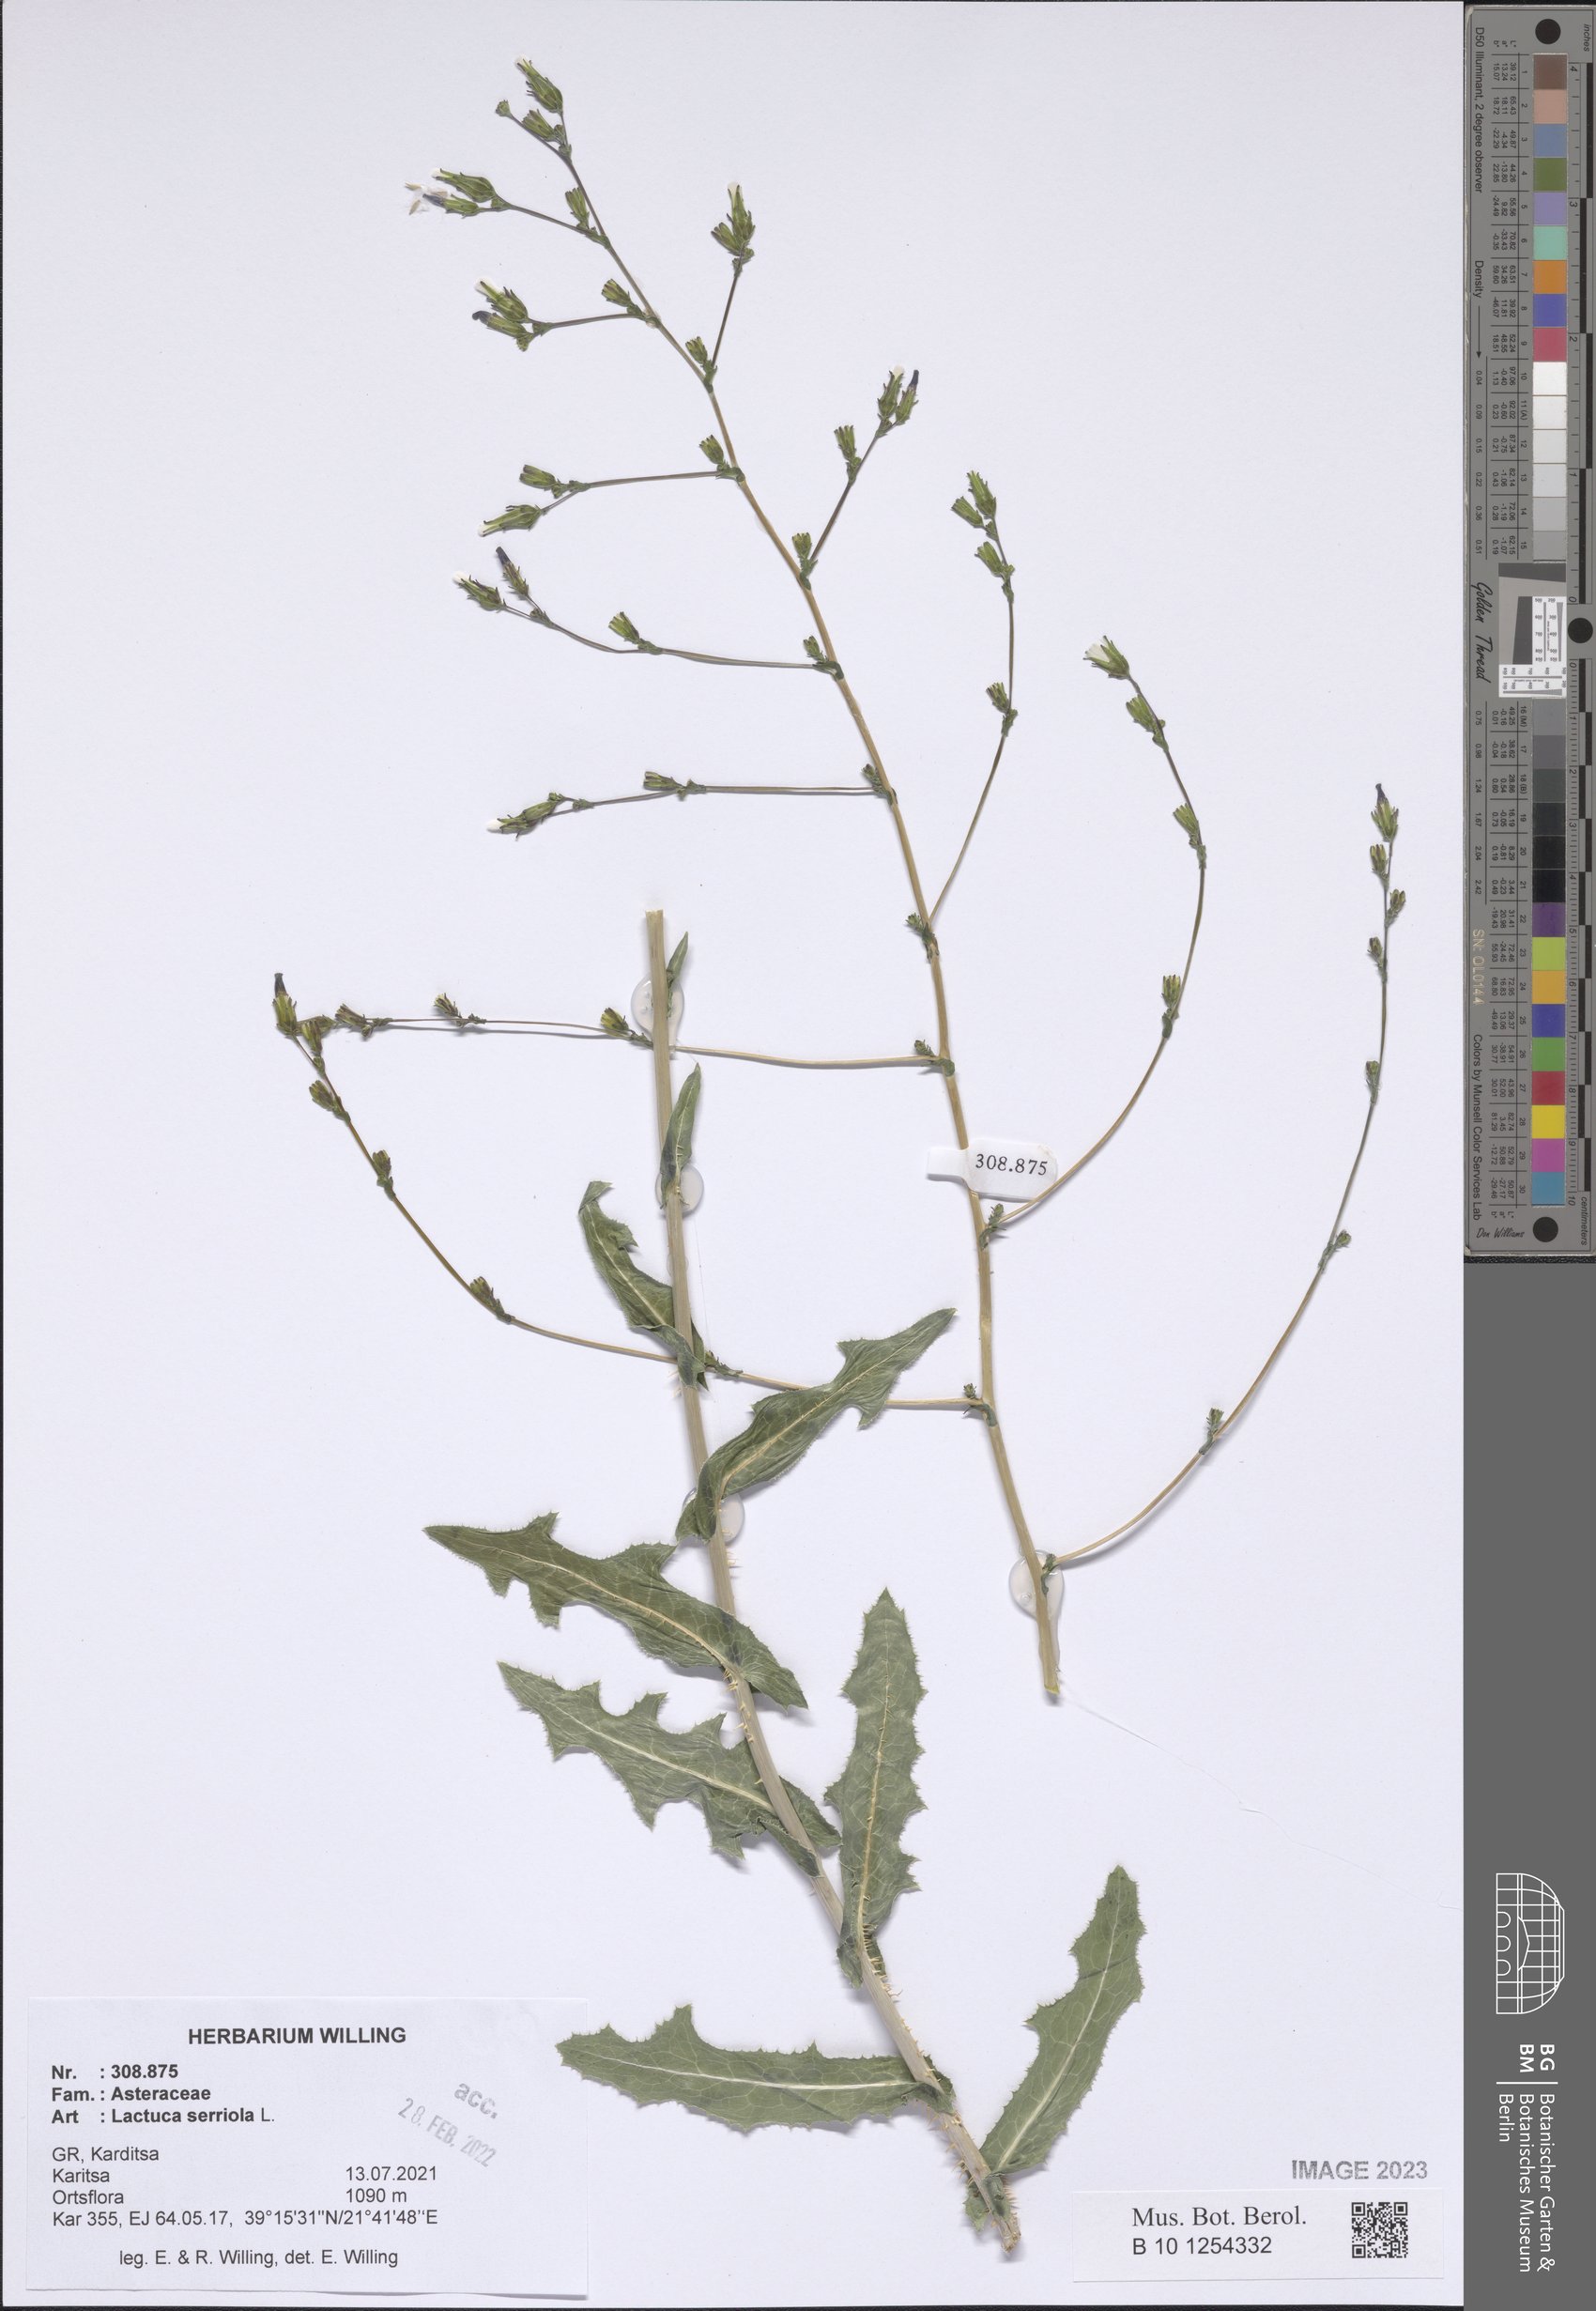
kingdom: Plantae
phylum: Tracheophyta
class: Magnoliopsida
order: Asterales
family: Asteraceae
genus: Lactuca
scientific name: Lactuca serriola
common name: Prickly lettuce
